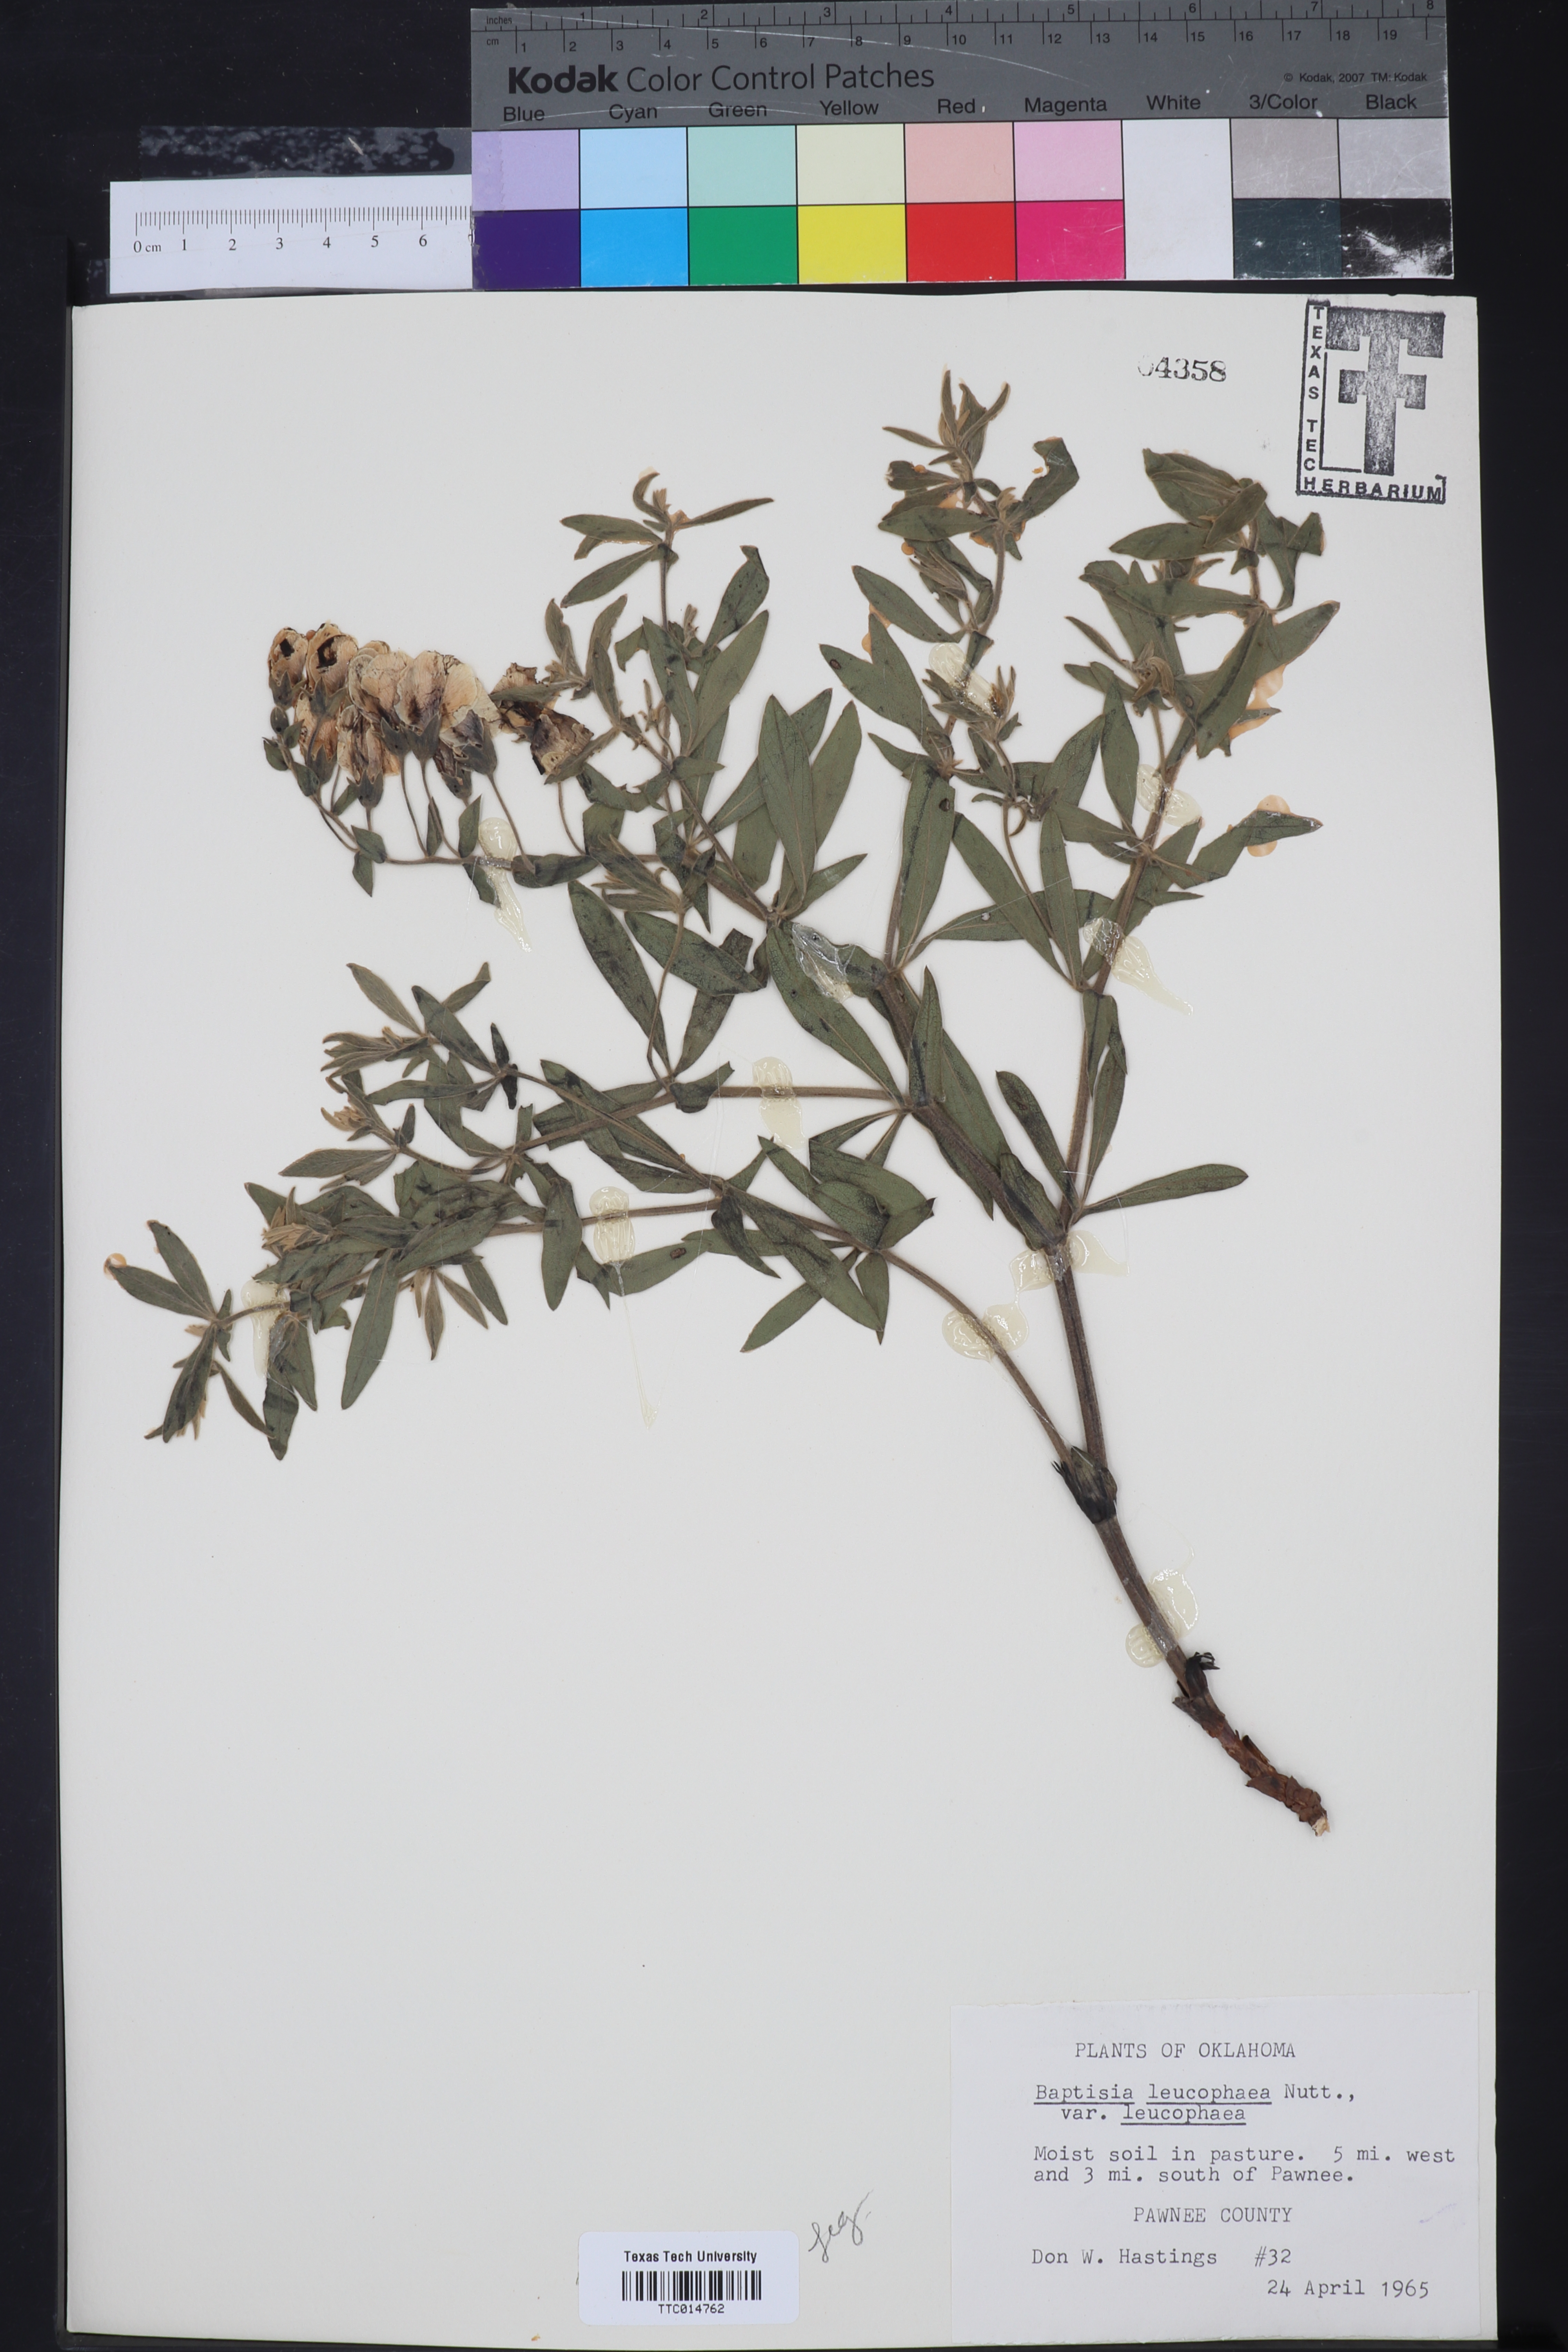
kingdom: Plantae
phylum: Tracheophyta
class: Magnoliopsida
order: Fabales
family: Fabaceae
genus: Baptisia
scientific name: Baptisia bracteata
